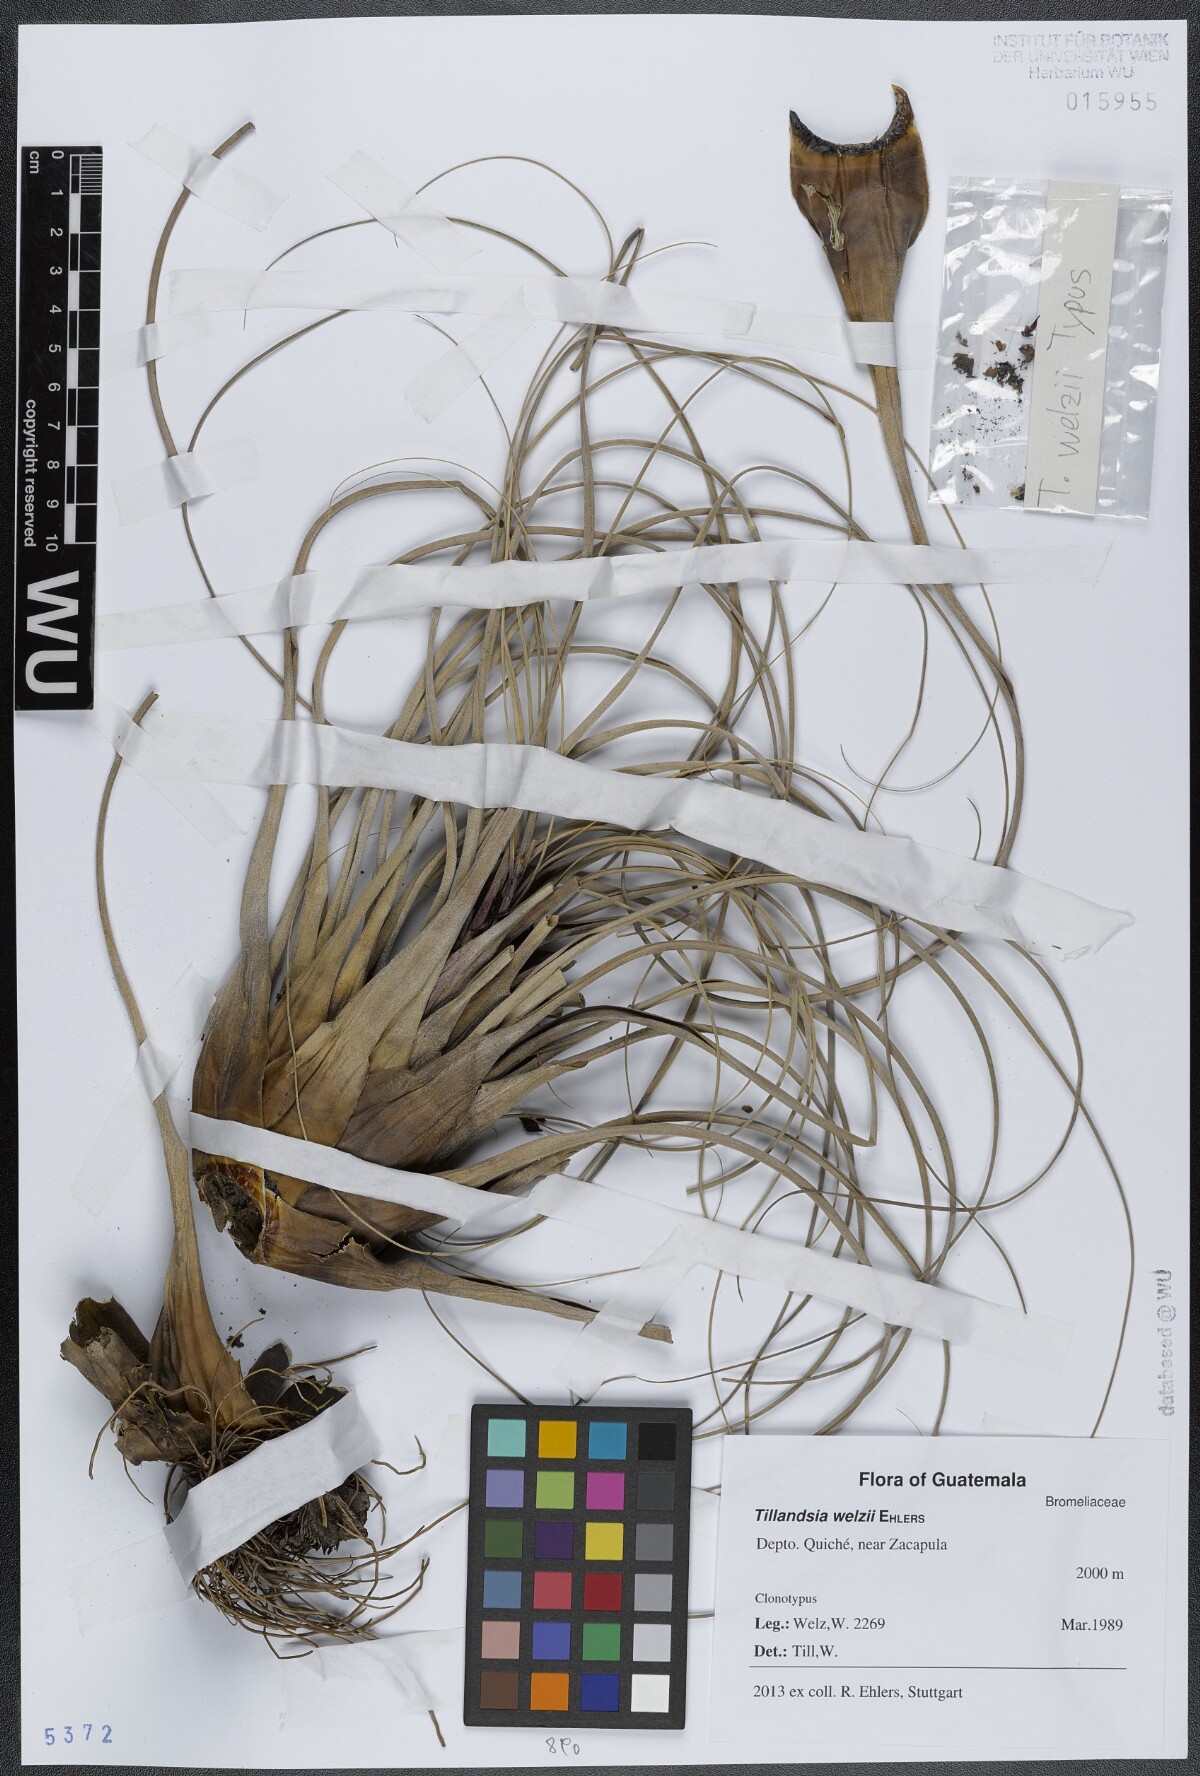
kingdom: Plantae
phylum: Tracheophyta
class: Liliopsida
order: Poales
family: Bromeliaceae
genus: Tillandsia
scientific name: Tillandsia welzii
